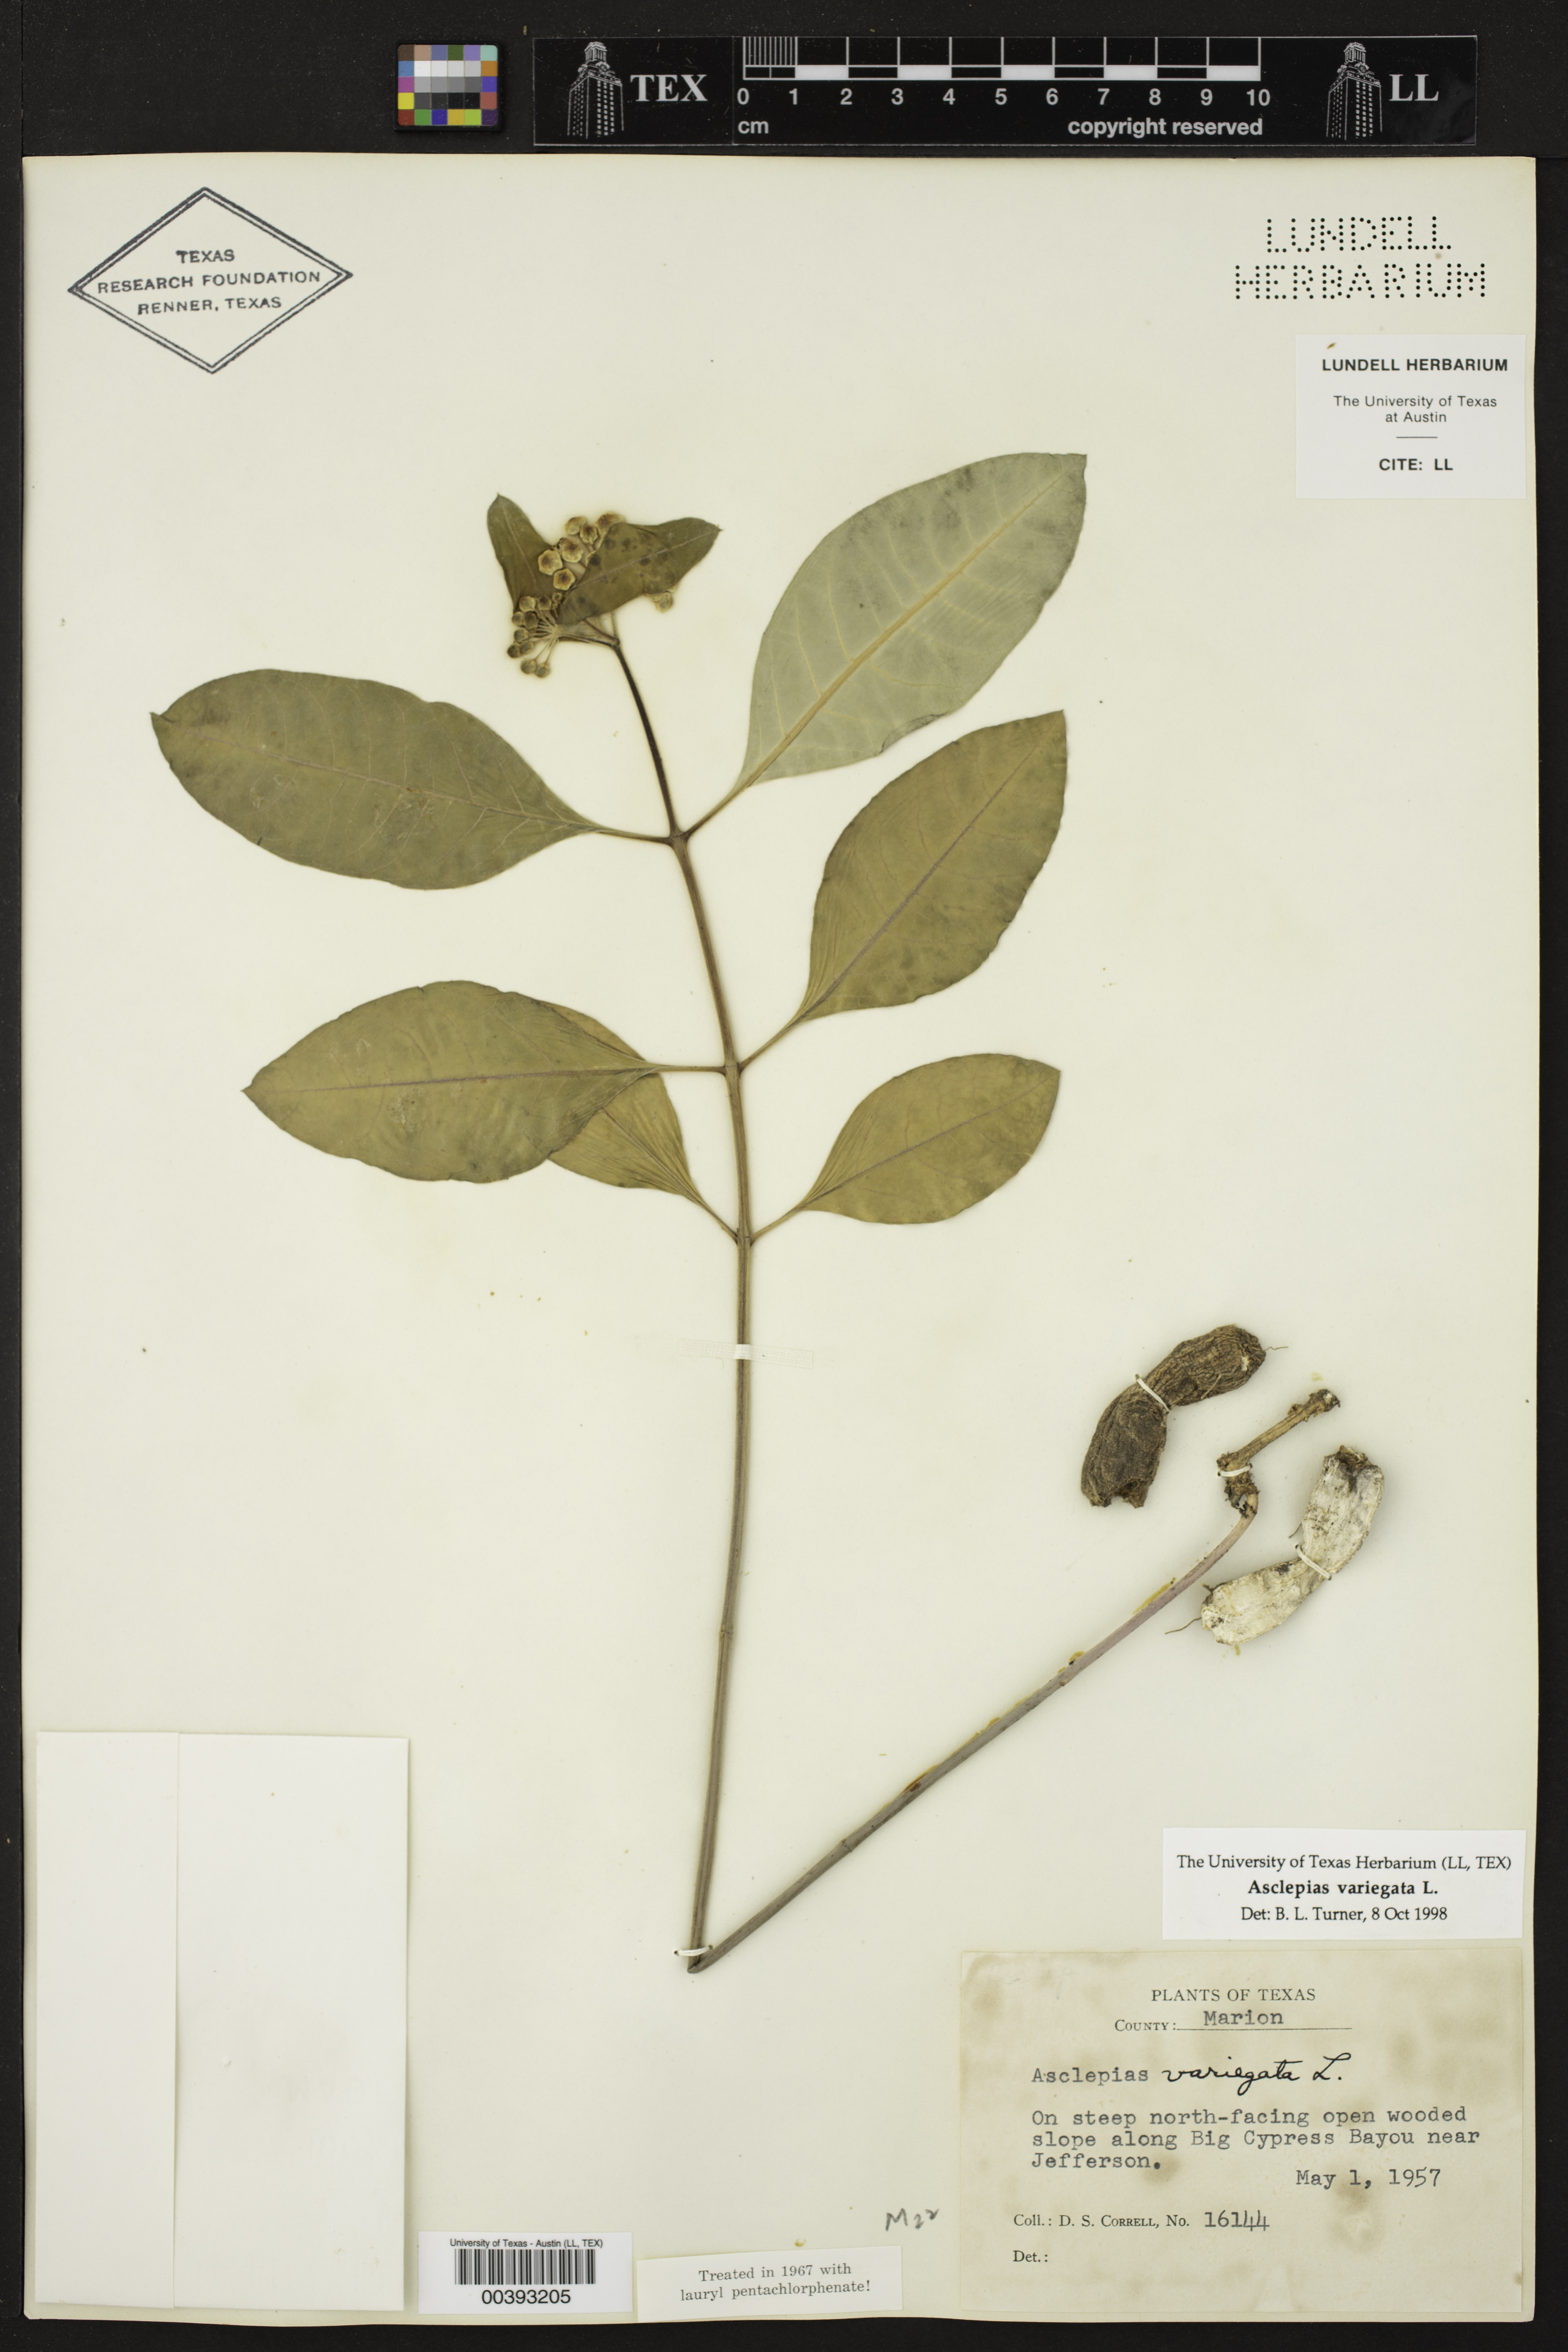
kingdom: Plantae
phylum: Tracheophyta
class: Magnoliopsida
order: Gentianales
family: Apocynaceae
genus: Asclepias
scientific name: Asclepias variegata
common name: Variegated milkweed
